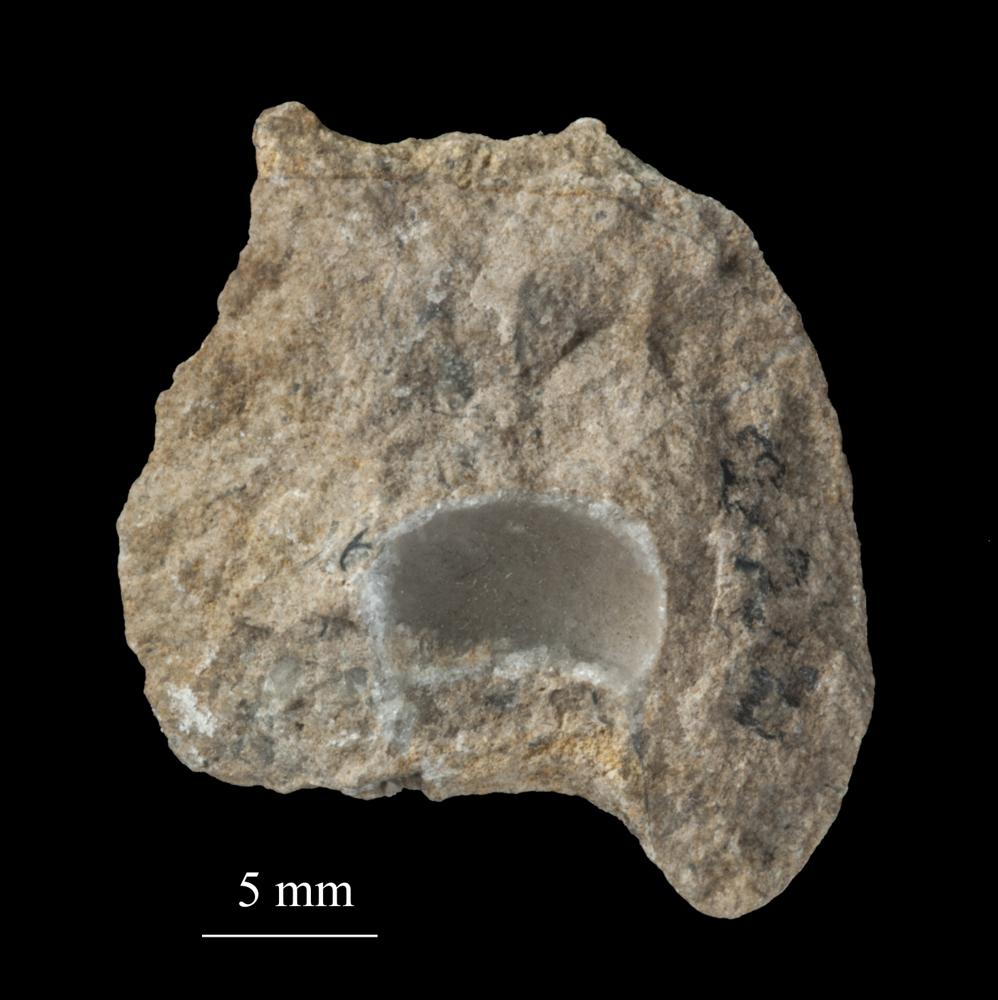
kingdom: Animalia
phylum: Mollusca
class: Gastropoda
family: Bucaniidae
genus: Tetranota
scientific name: Tetranota Bucaniella jugata
